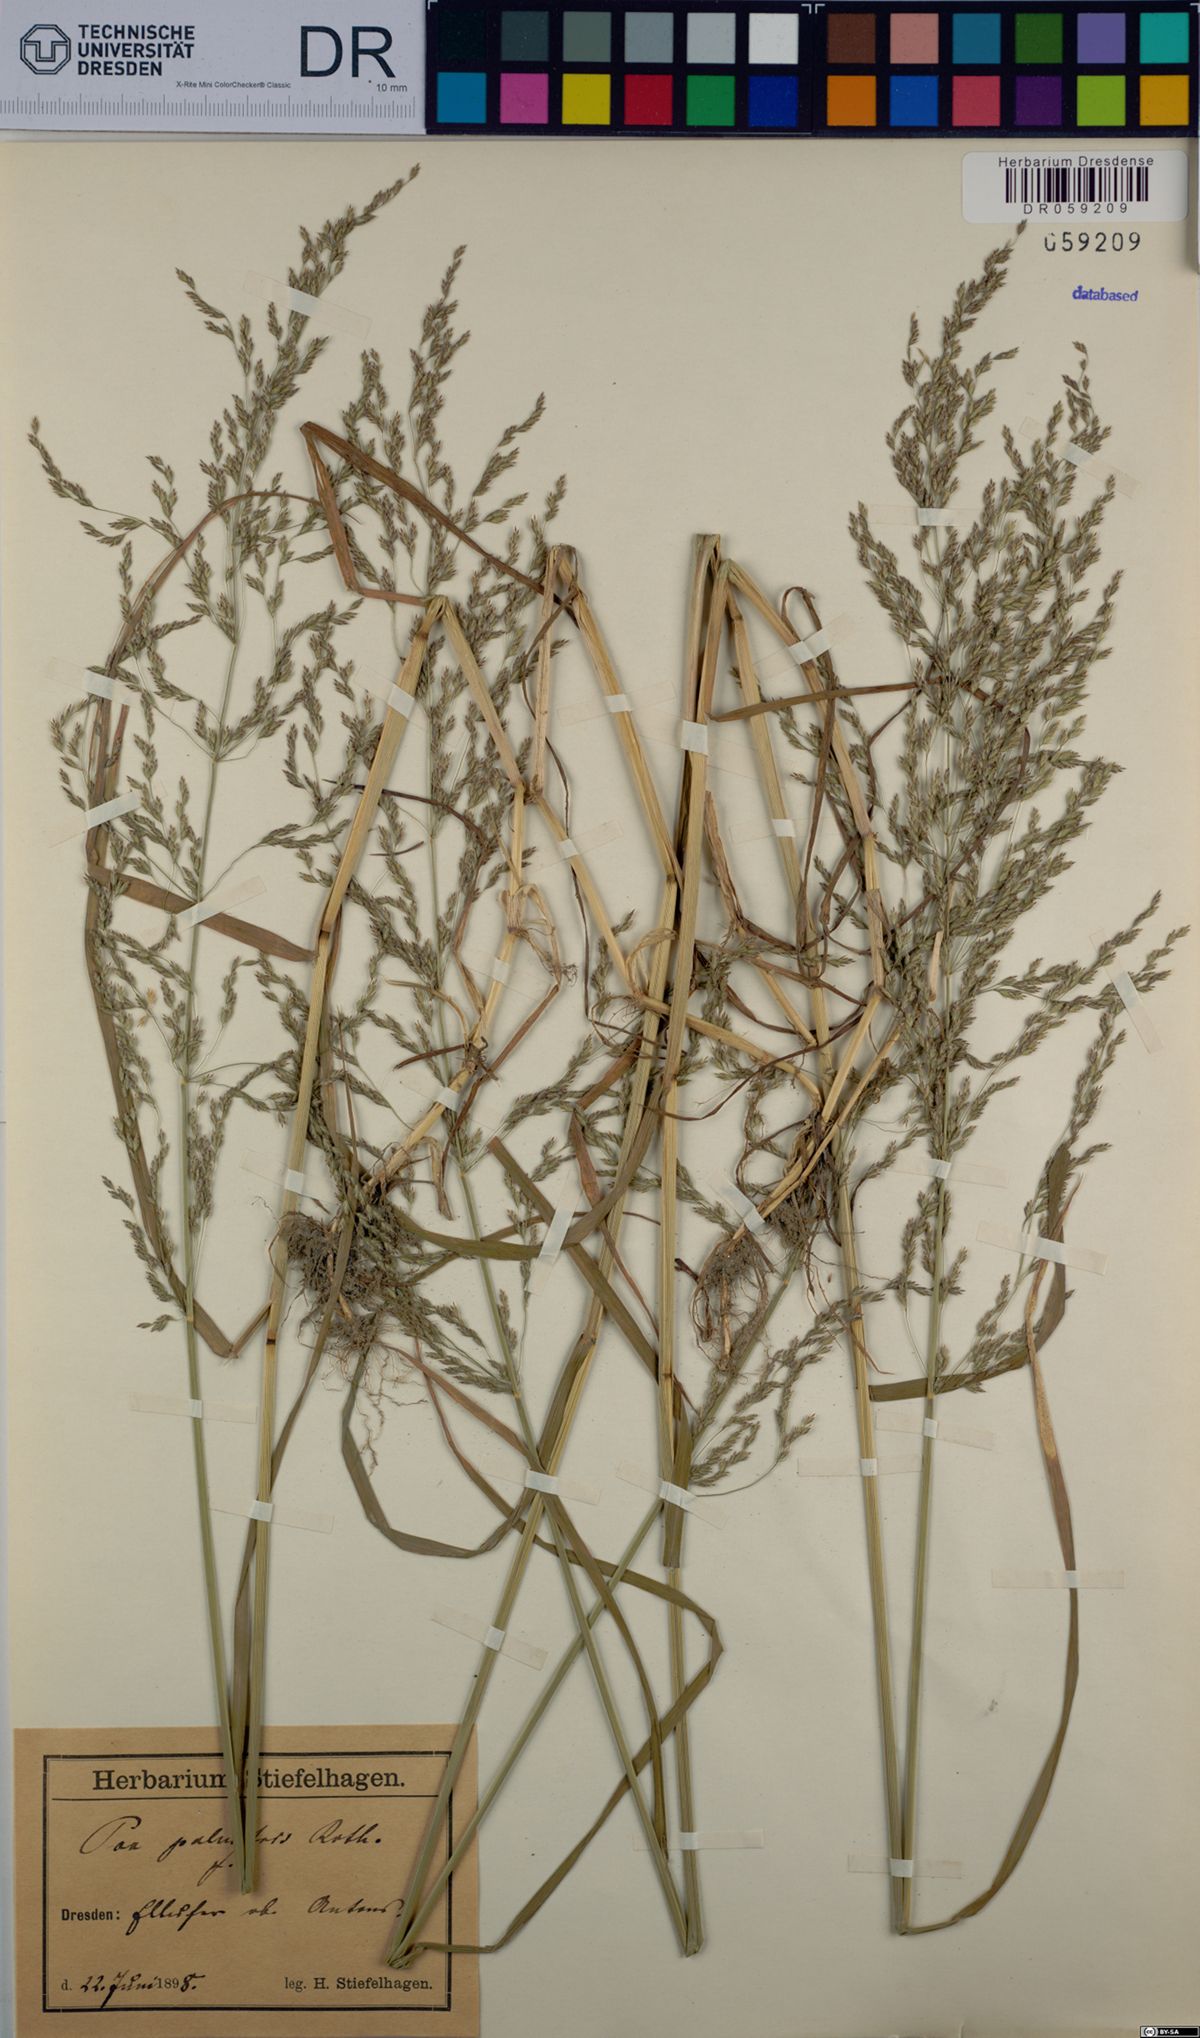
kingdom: Plantae
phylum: Tracheophyta
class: Liliopsida
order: Poales
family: Poaceae
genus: Poa
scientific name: Poa palustris
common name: Swamp meadow-grass
